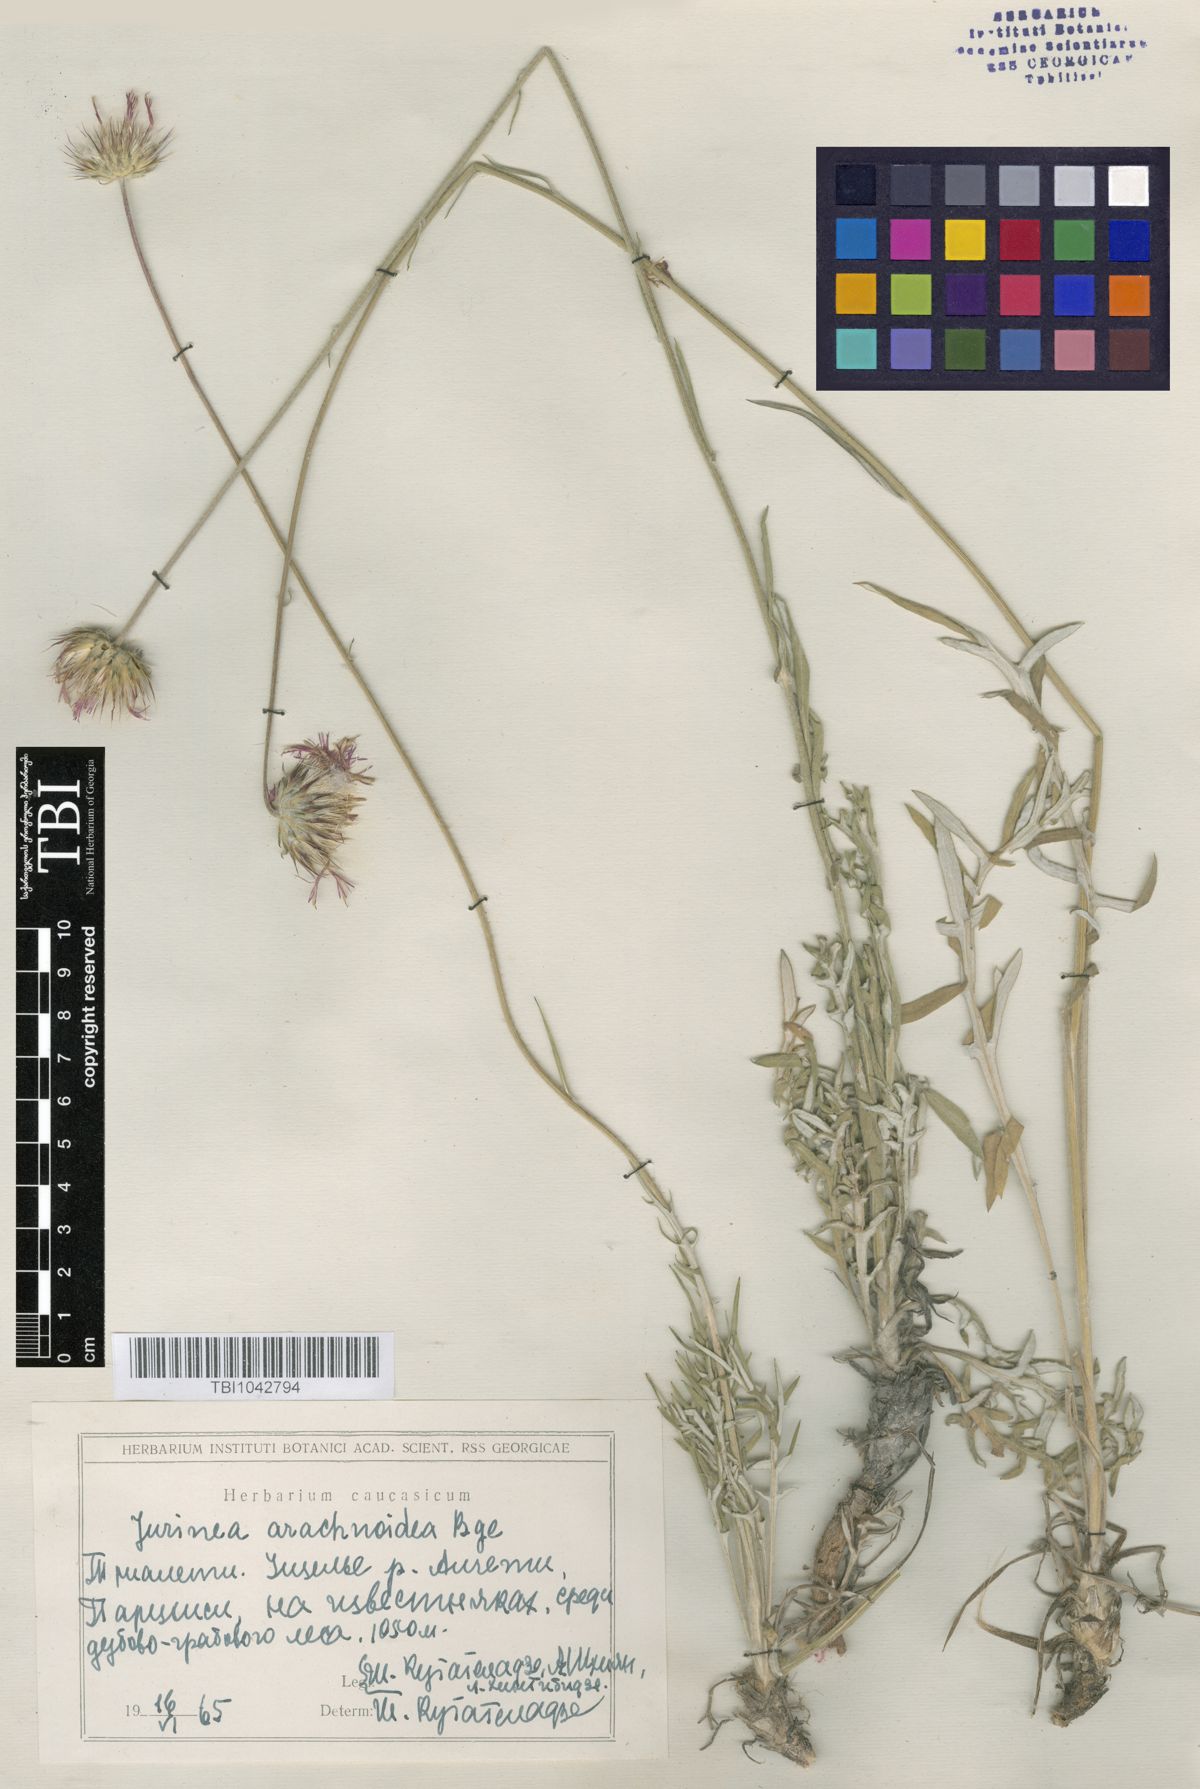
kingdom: Plantae
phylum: Tracheophyta
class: Magnoliopsida
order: Asterales
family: Asteraceae
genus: Jurinea
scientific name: Jurinea blanda
